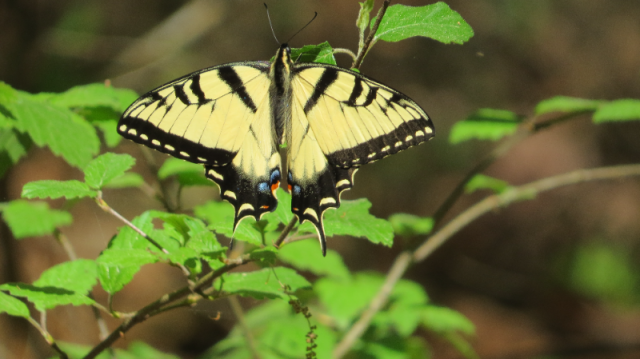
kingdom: Animalia
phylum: Arthropoda
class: Insecta
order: Lepidoptera
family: Papilionidae
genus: Pterourus
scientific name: Pterourus glaucus
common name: Eastern Tiger Swallowtail
